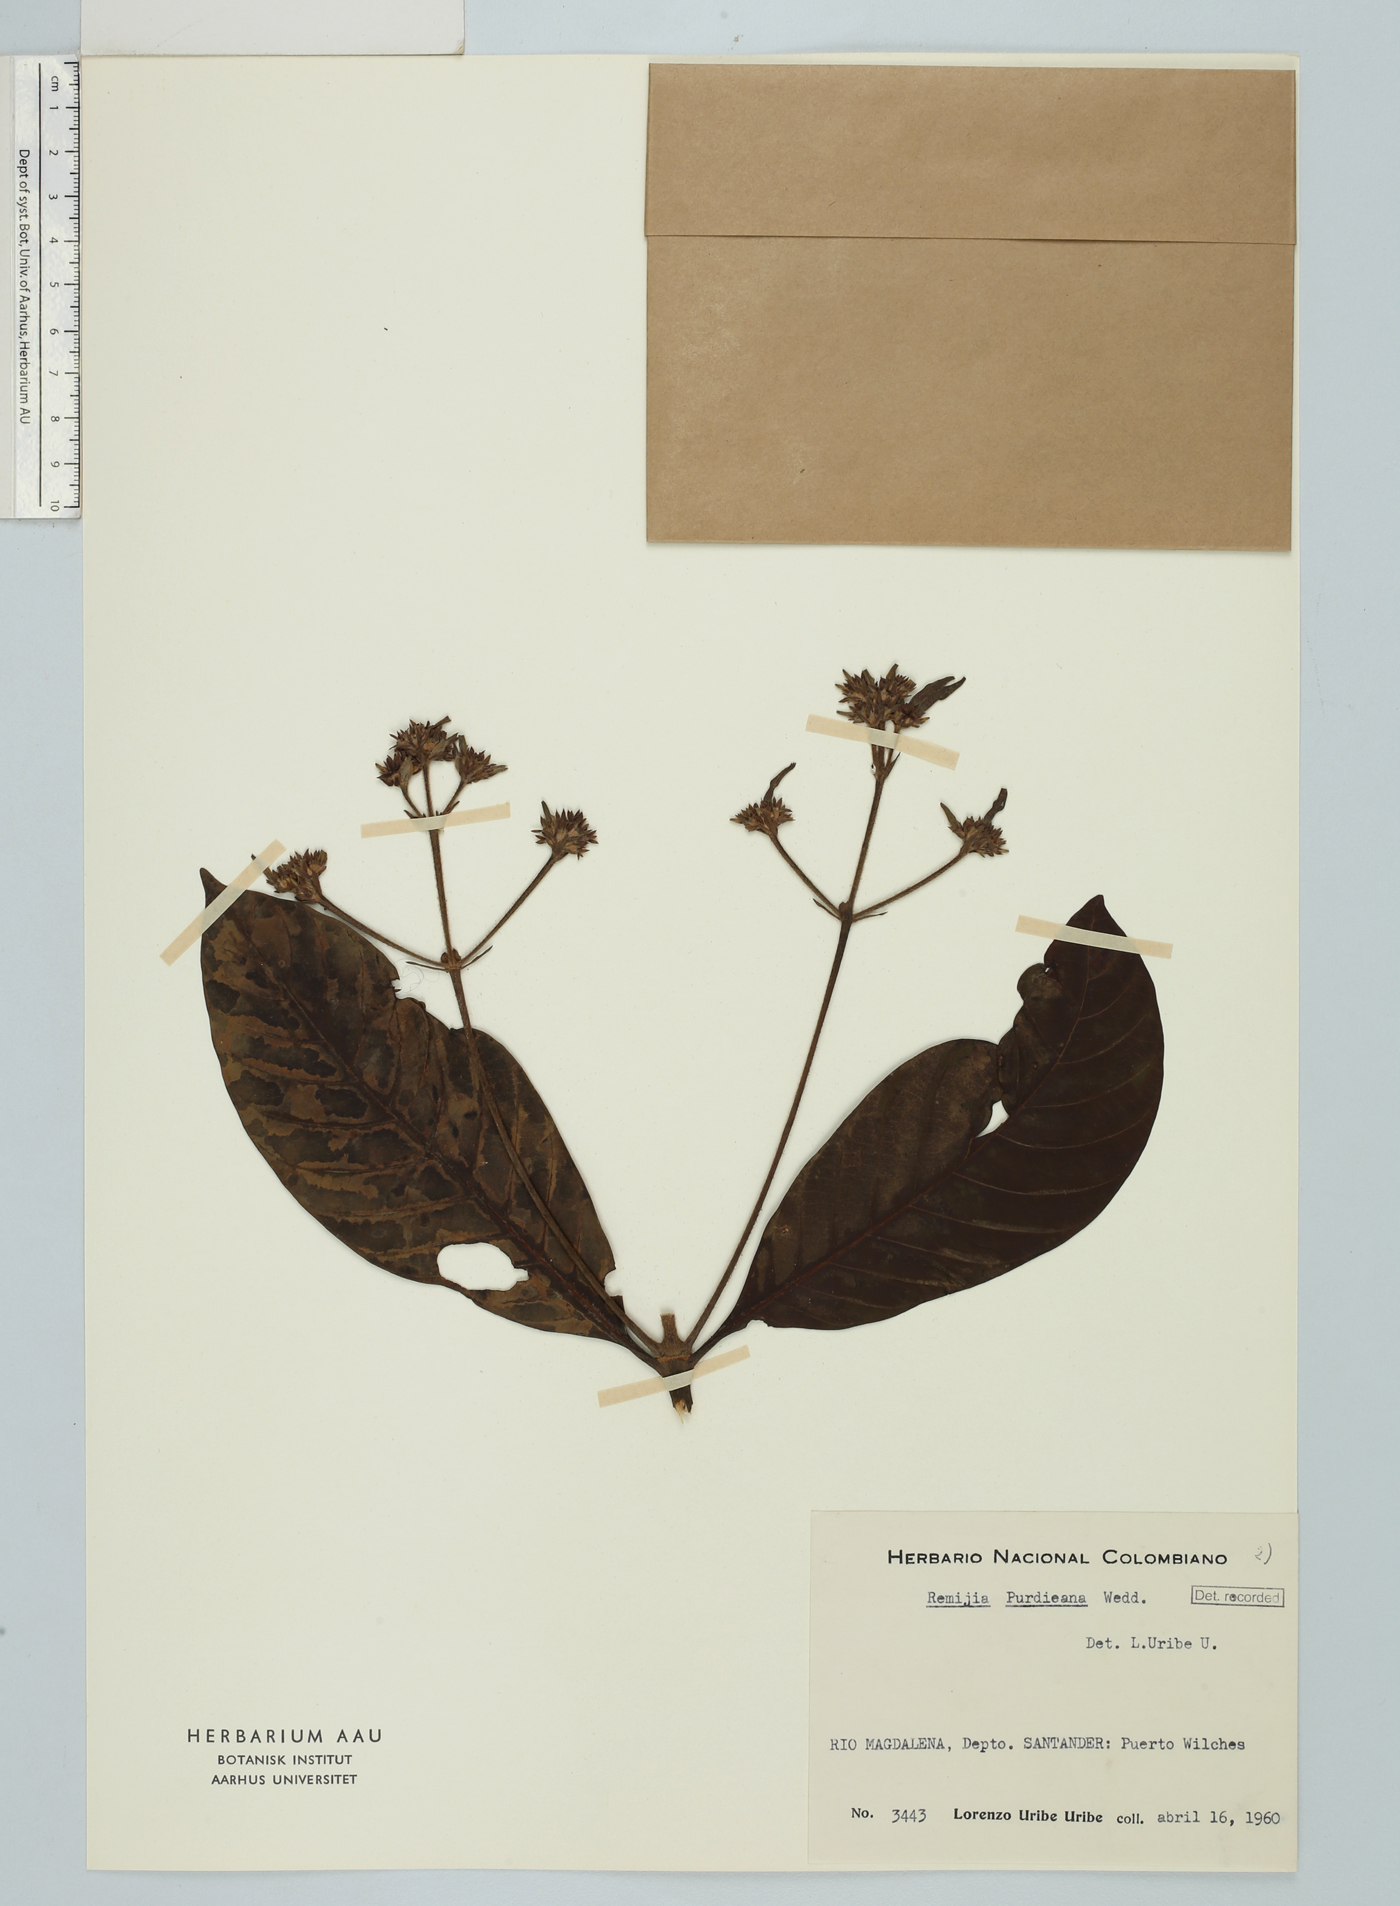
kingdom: Plantae
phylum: Tracheophyta
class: Magnoliopsida
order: Gentianales
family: Rubiaceae
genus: Ciliosemina
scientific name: Ciliosemina purdieana
